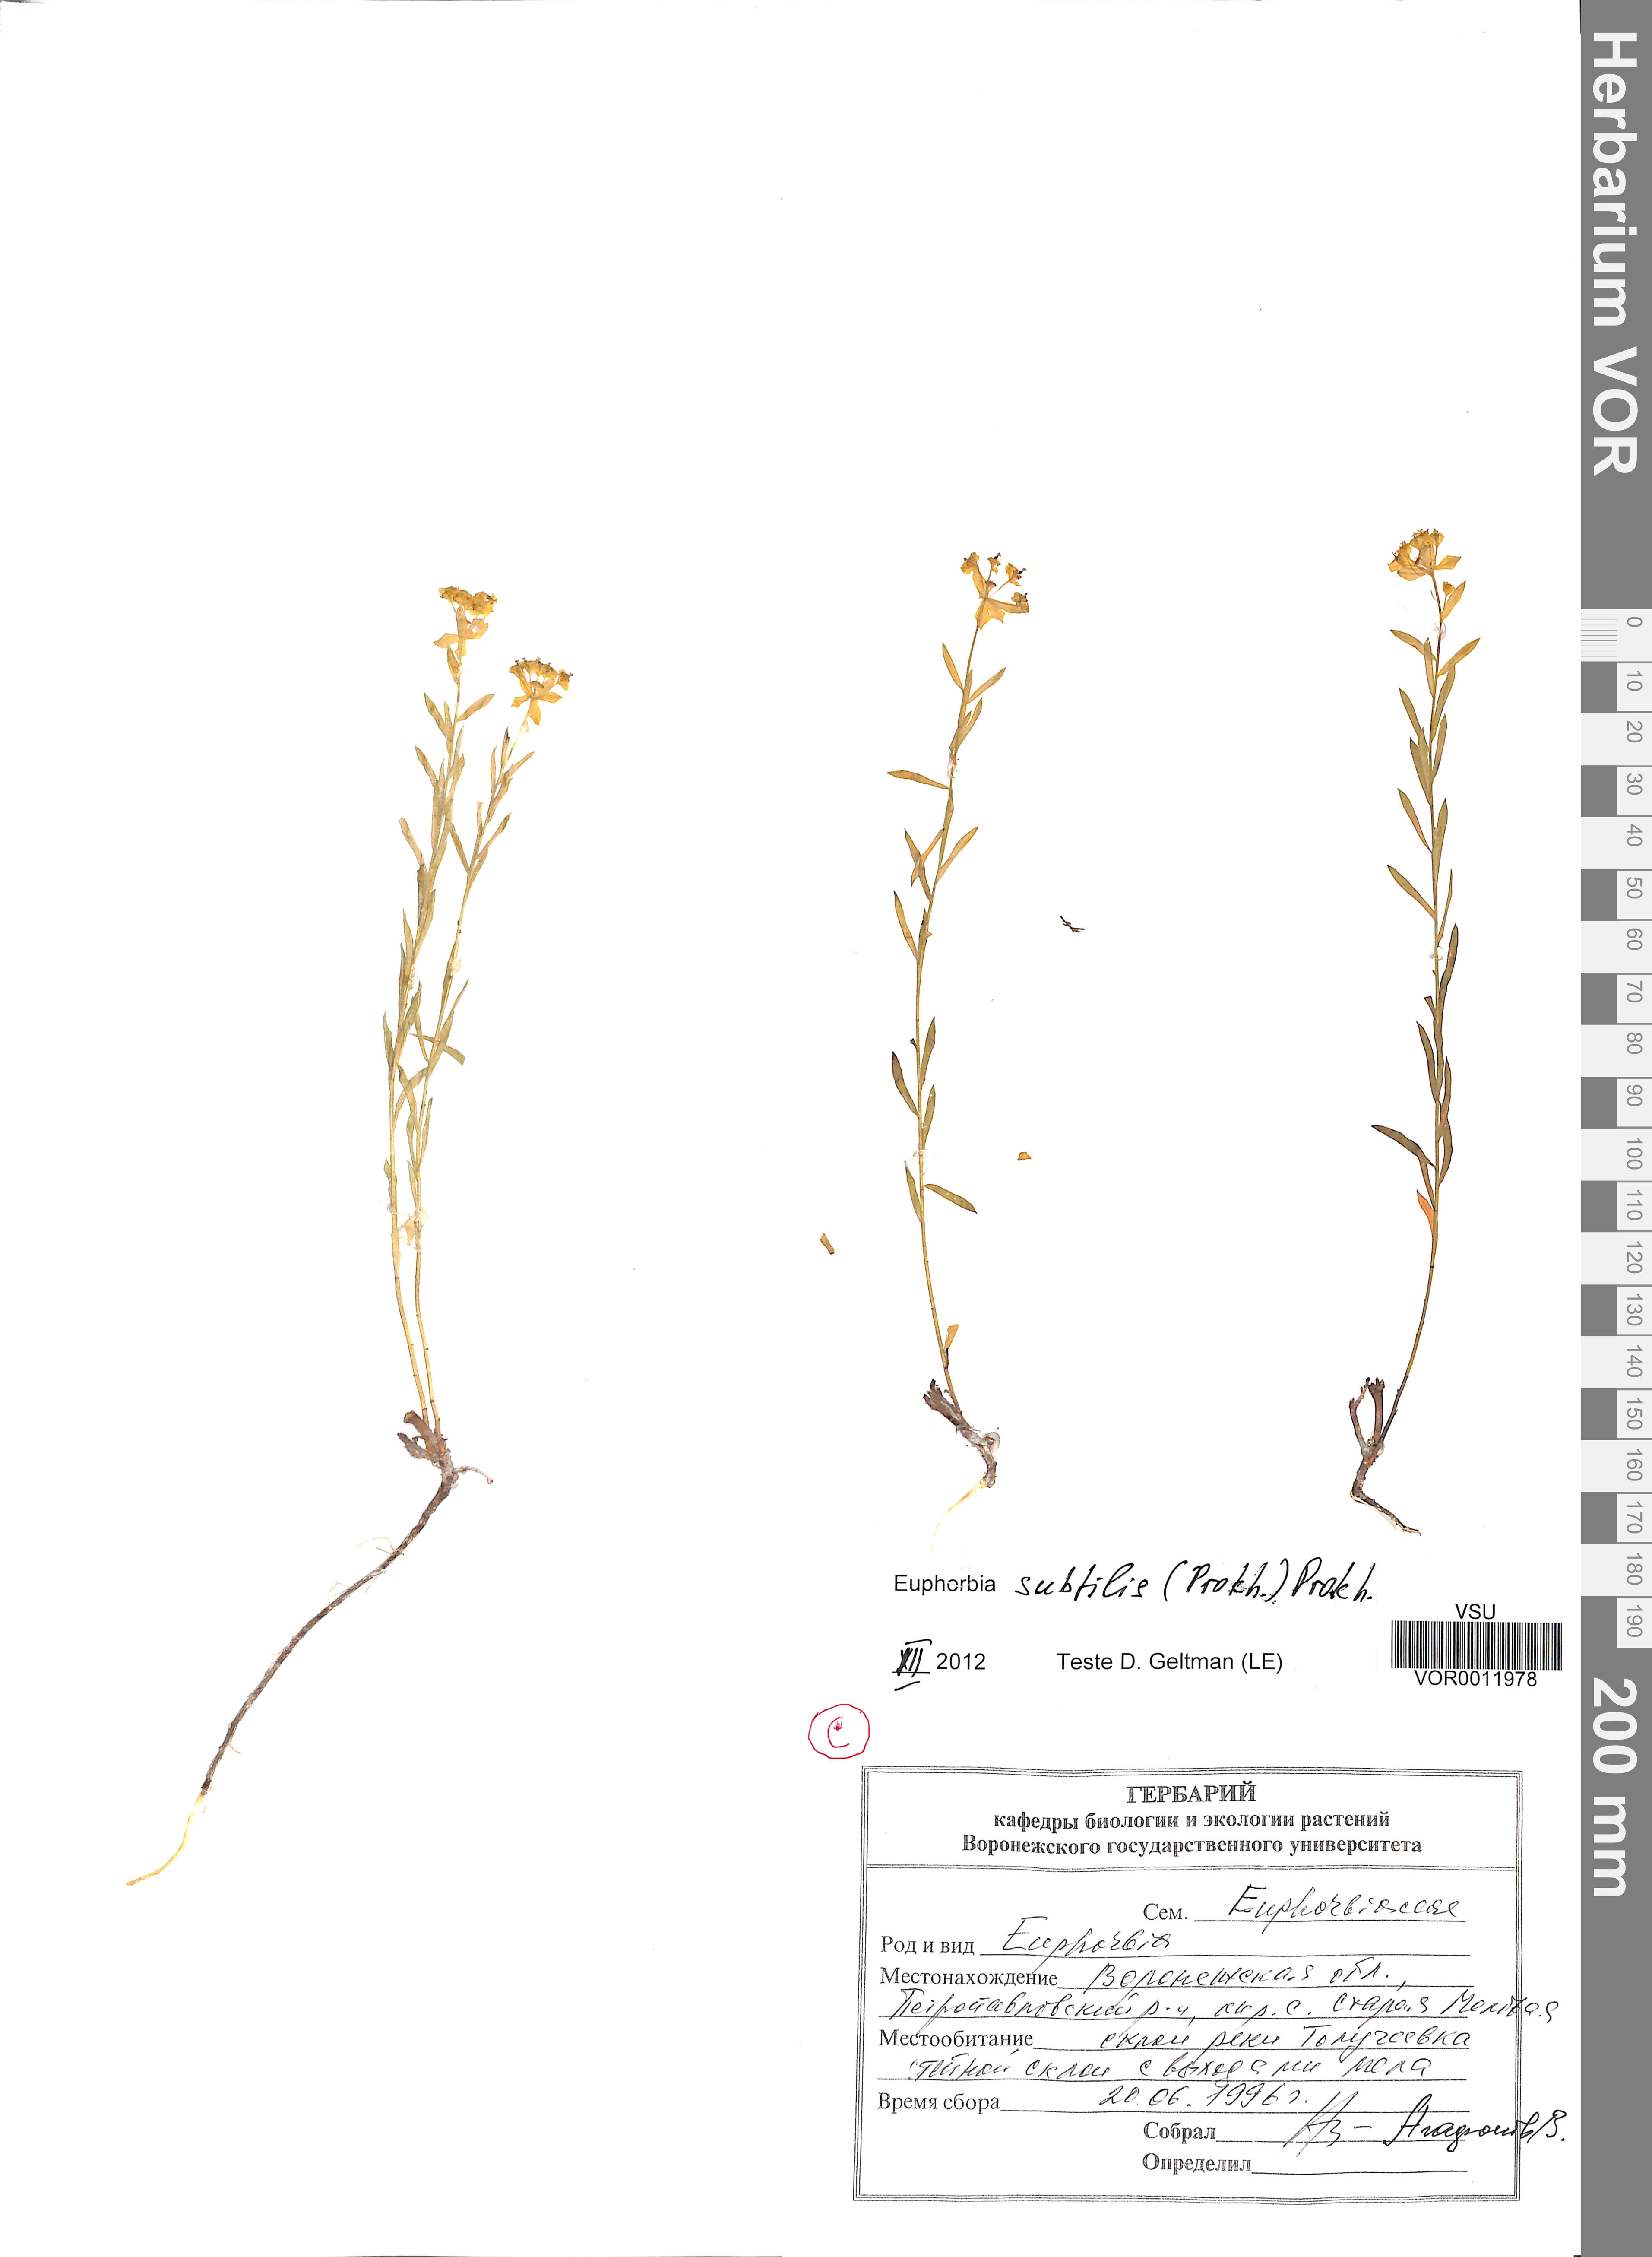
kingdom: Plantae
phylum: Tracheophyta
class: Magnoliopsida
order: Malpighiales
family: Euphorbiaceae
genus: Euphorbia
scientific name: Euphorbia microcarpa
